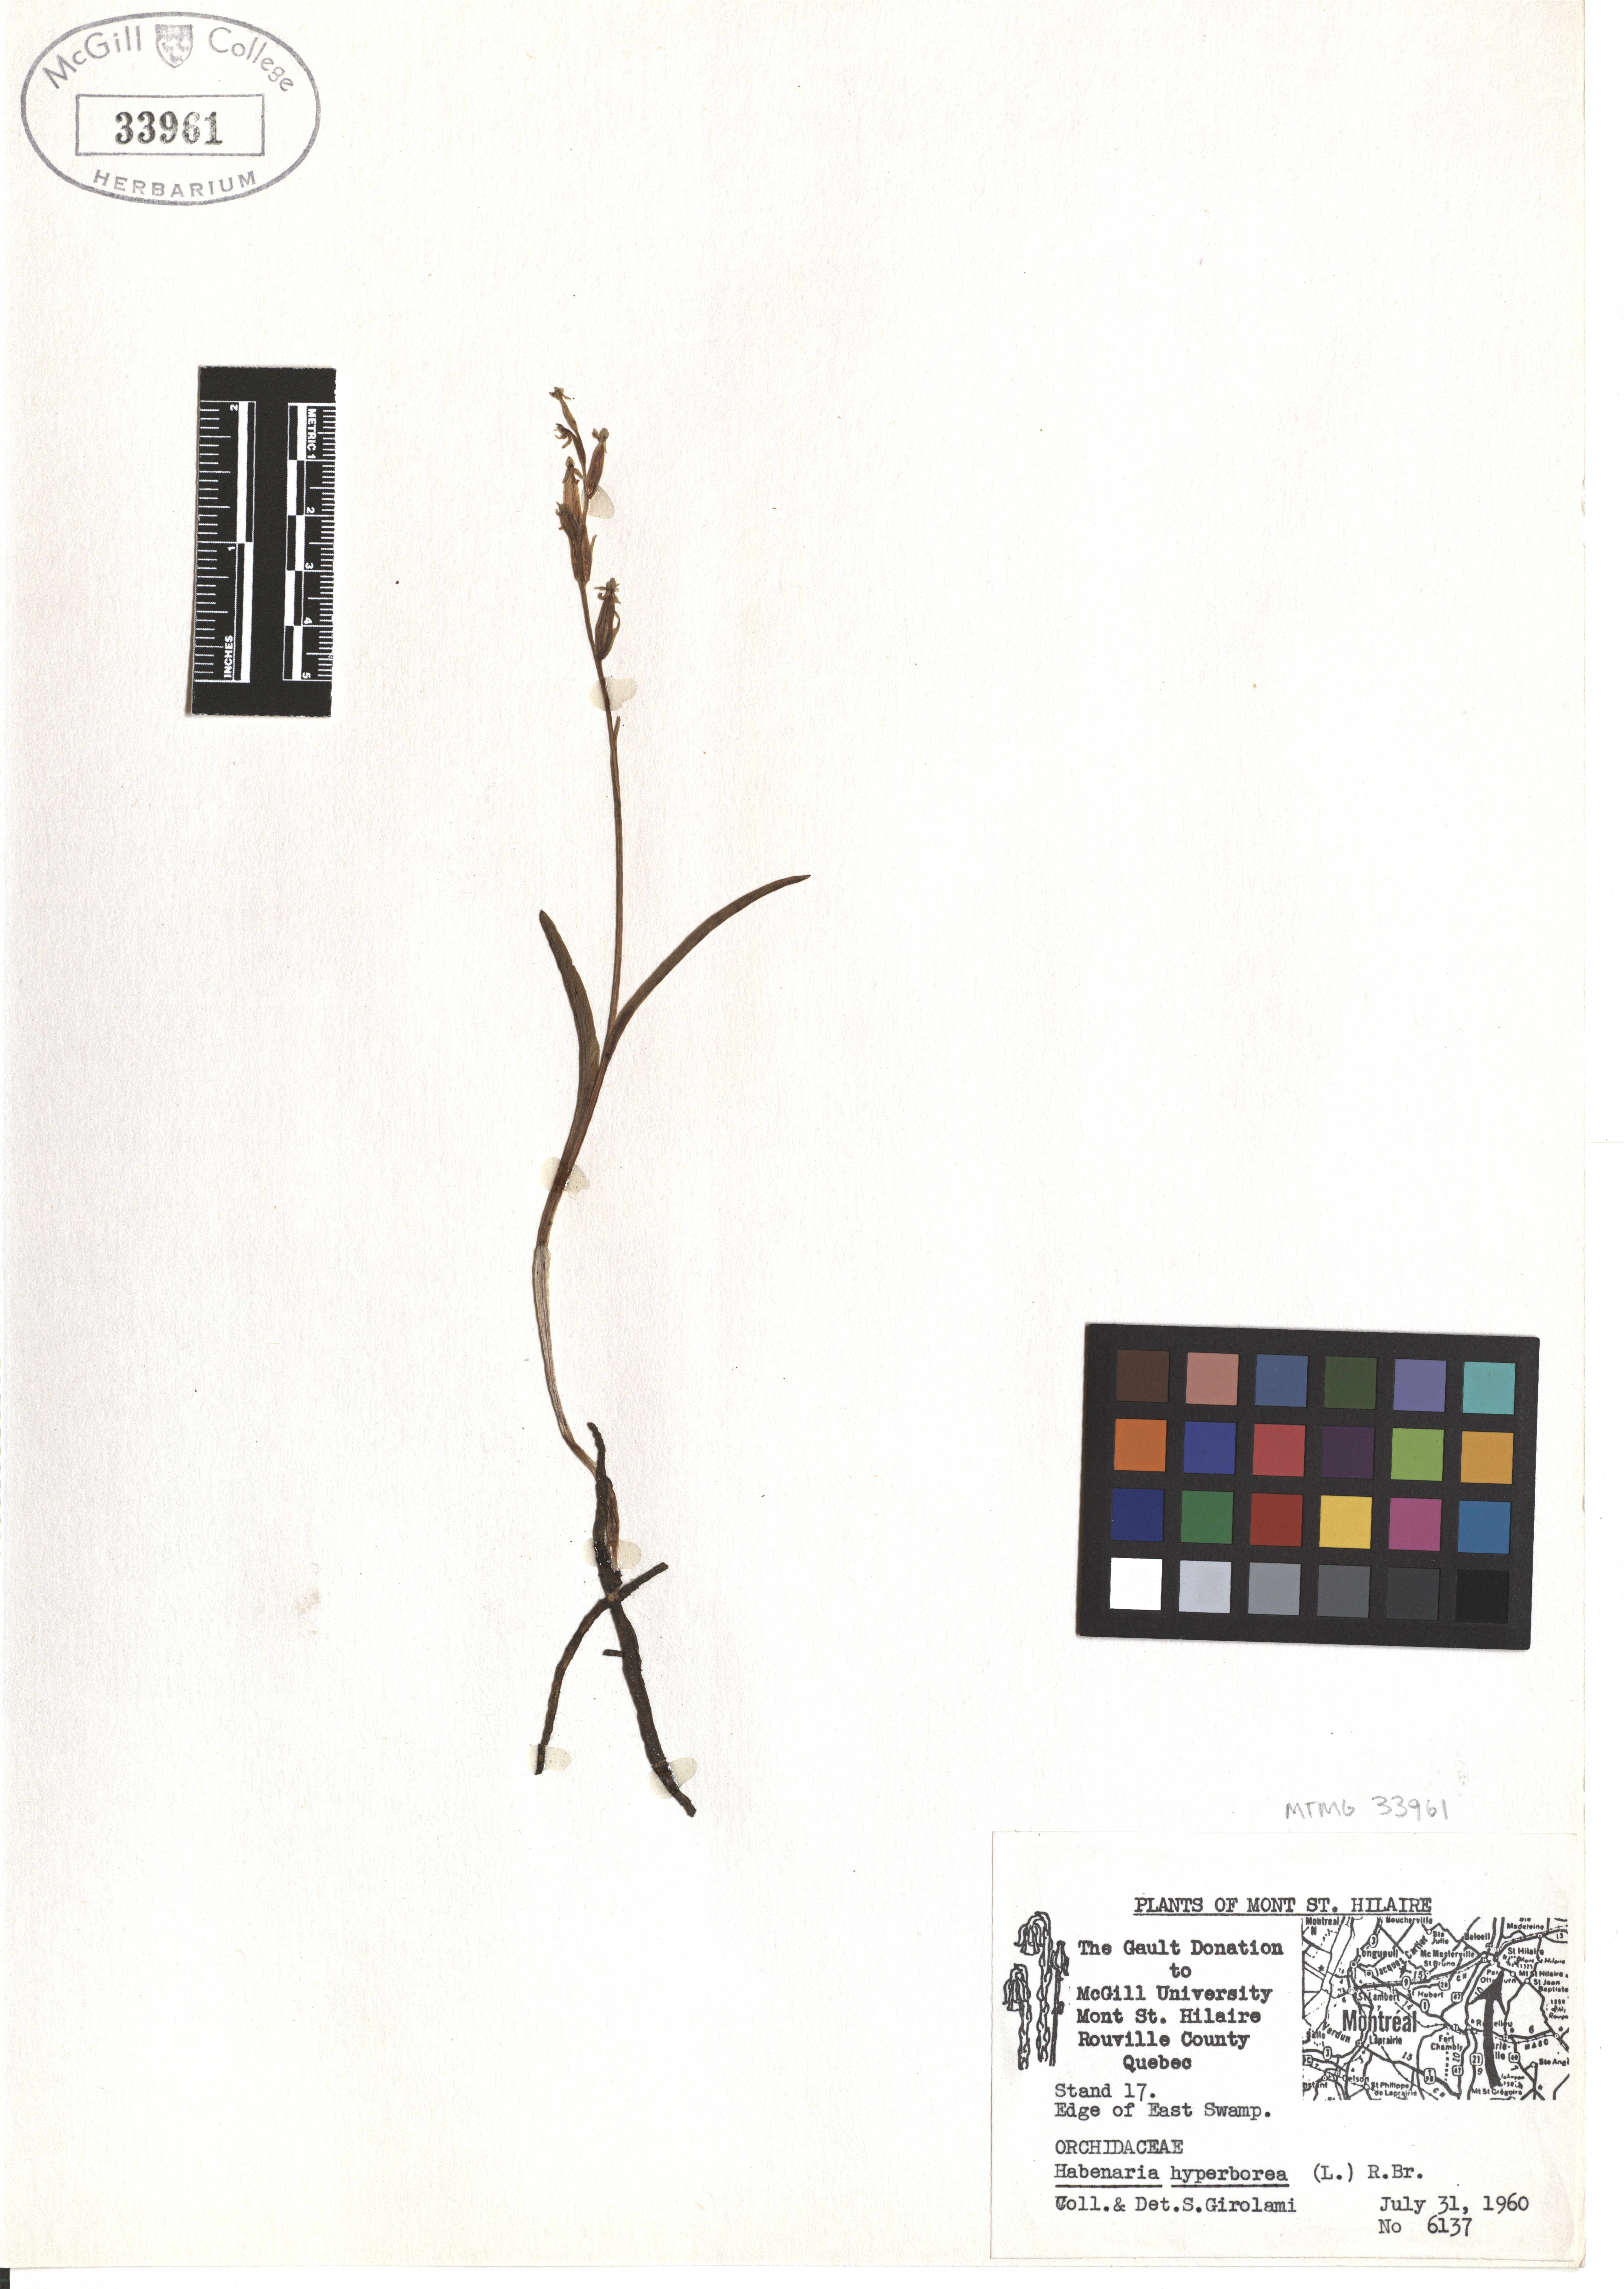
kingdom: Plantae
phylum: Tracheophyta
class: Liliopsida
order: Asparagales
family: Orchidaceae
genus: Platanthera
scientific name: Platanthera hyperborea
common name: Northern green orchid
